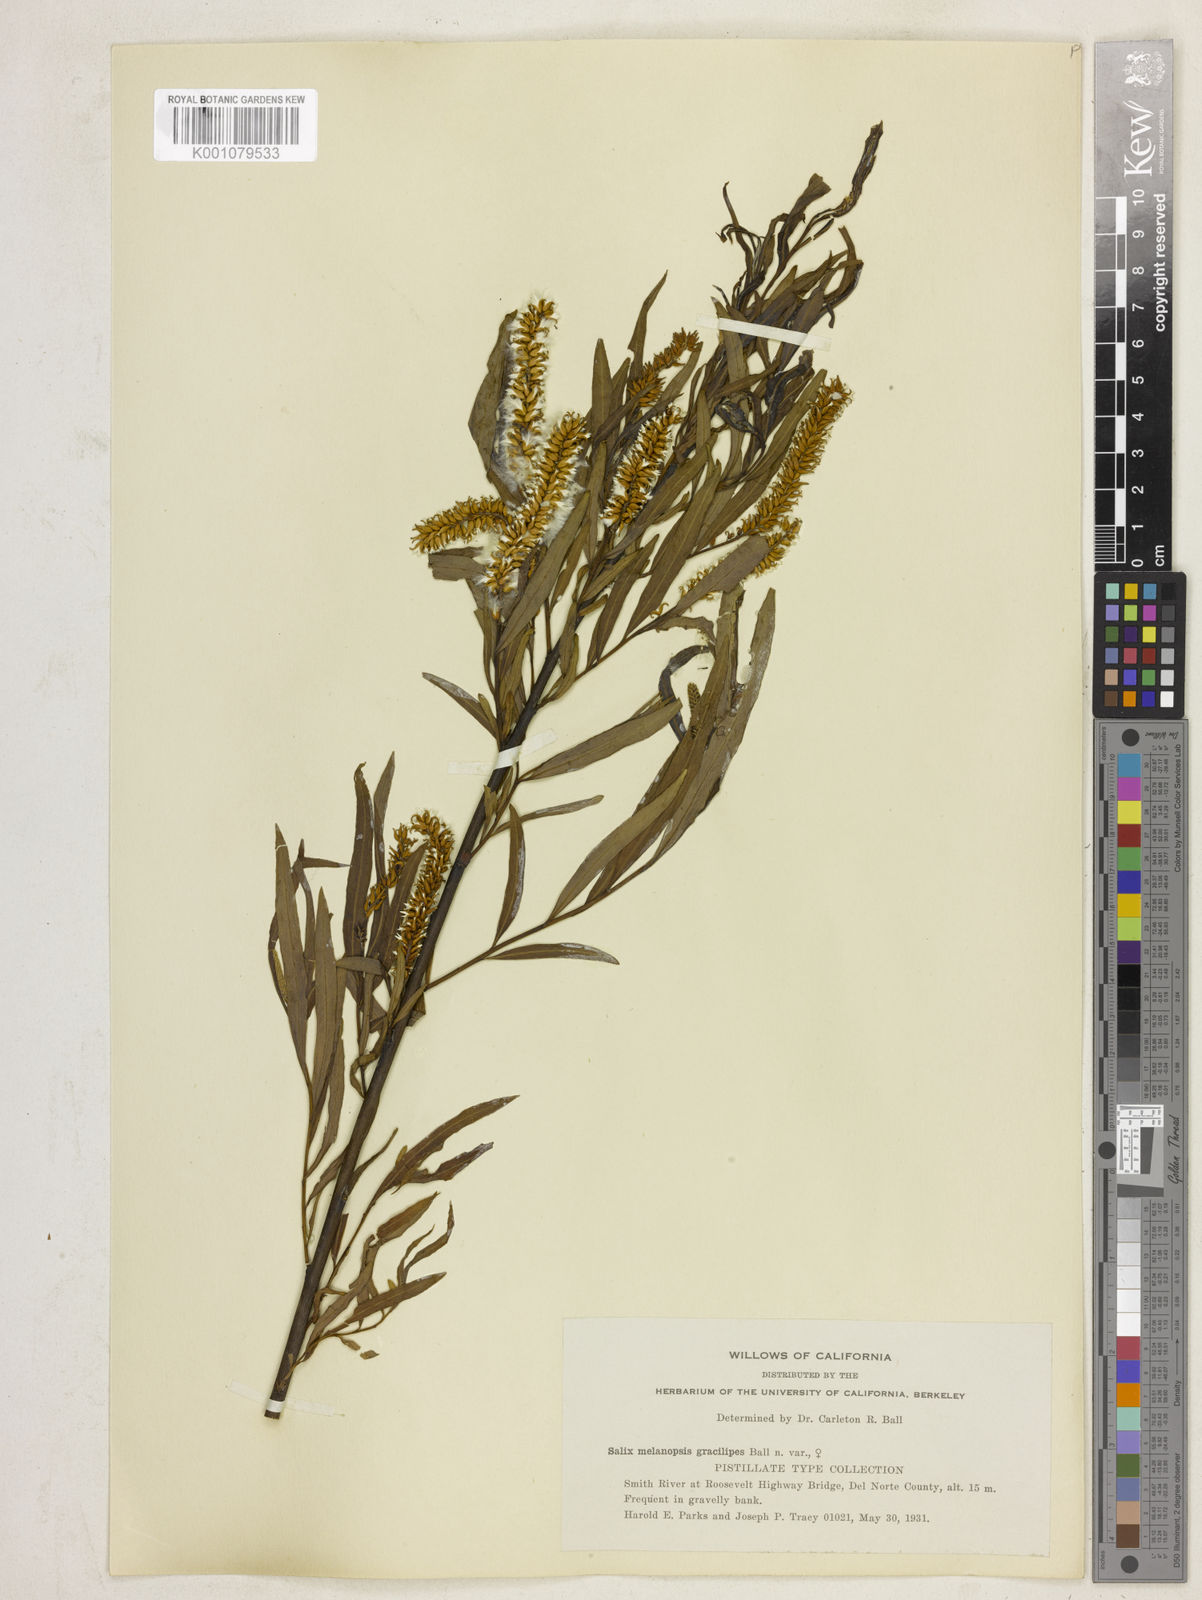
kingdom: Plantae
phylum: Tracheophyta
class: Magnoliopsida
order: Malpighiales
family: Salicaceae
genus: Salix
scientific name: Salix melanopsis
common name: Dusky willow
